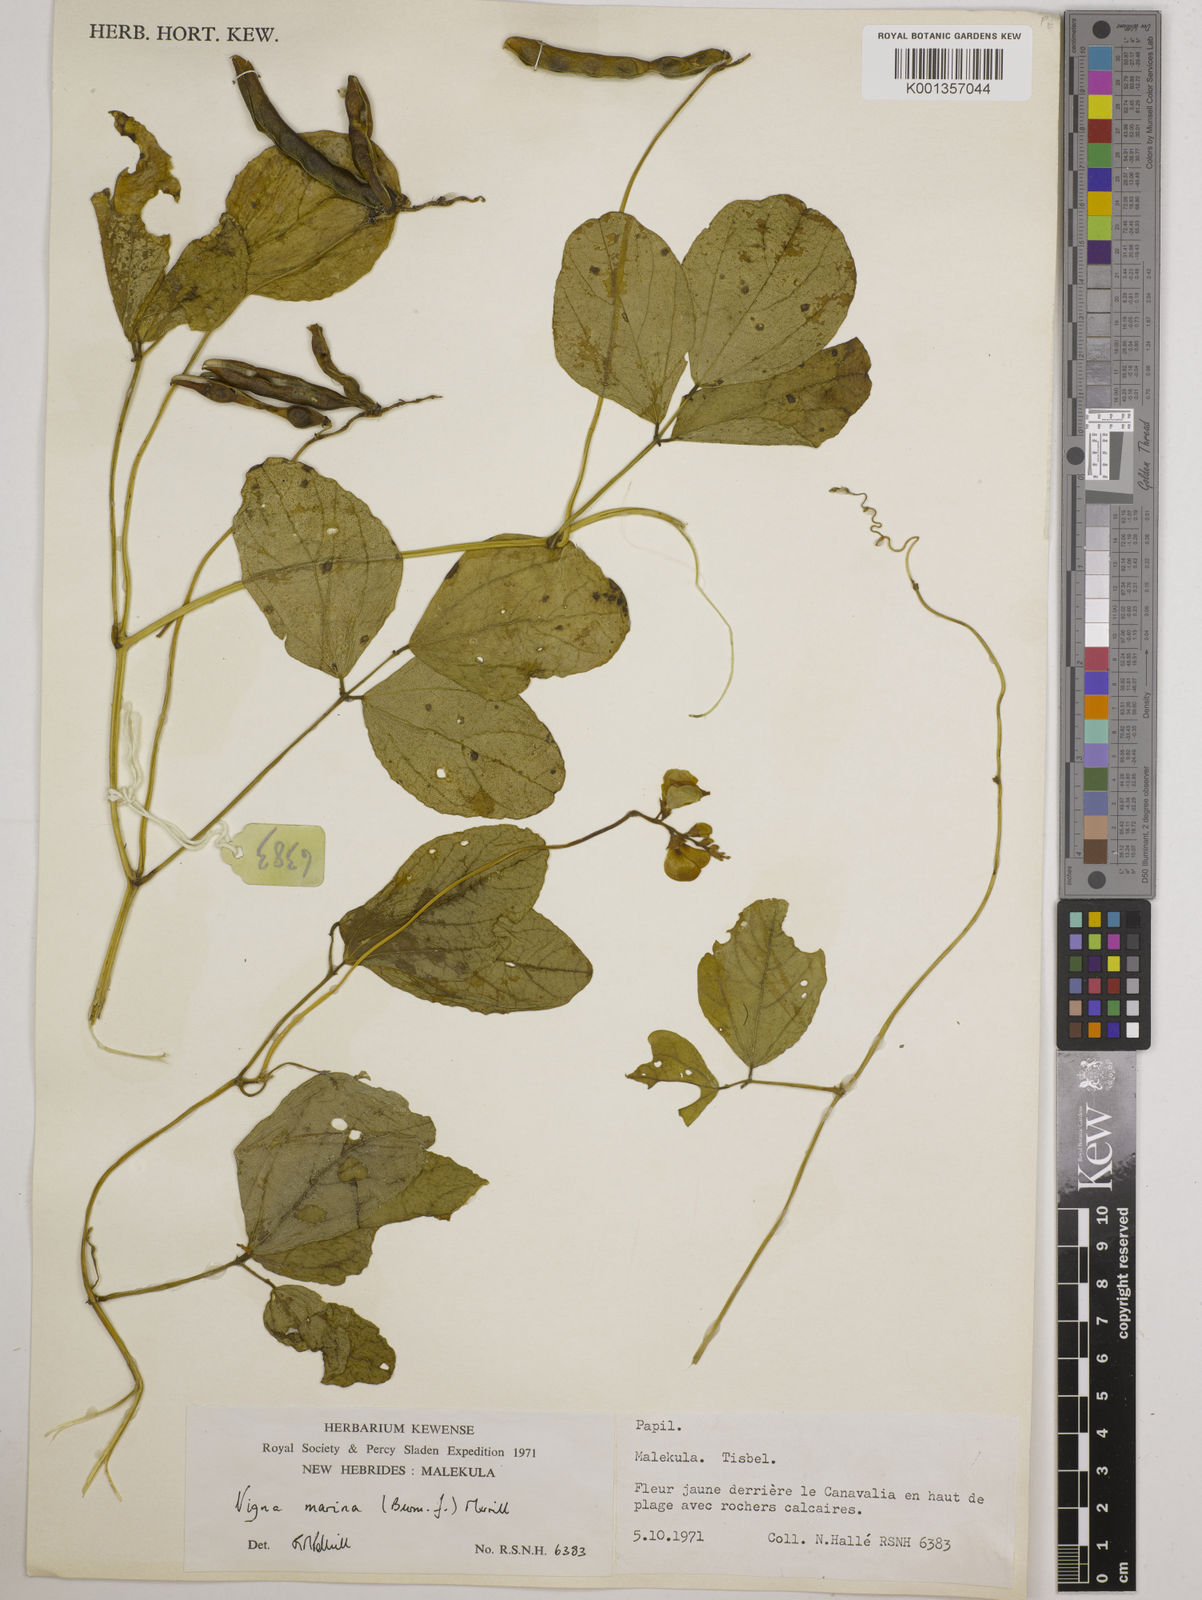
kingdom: Plantae
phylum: Tracheophyta
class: Magnoliopsida
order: Fabales
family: Fabaceae
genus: Vigna
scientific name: Vigna marina
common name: Dune-bean
